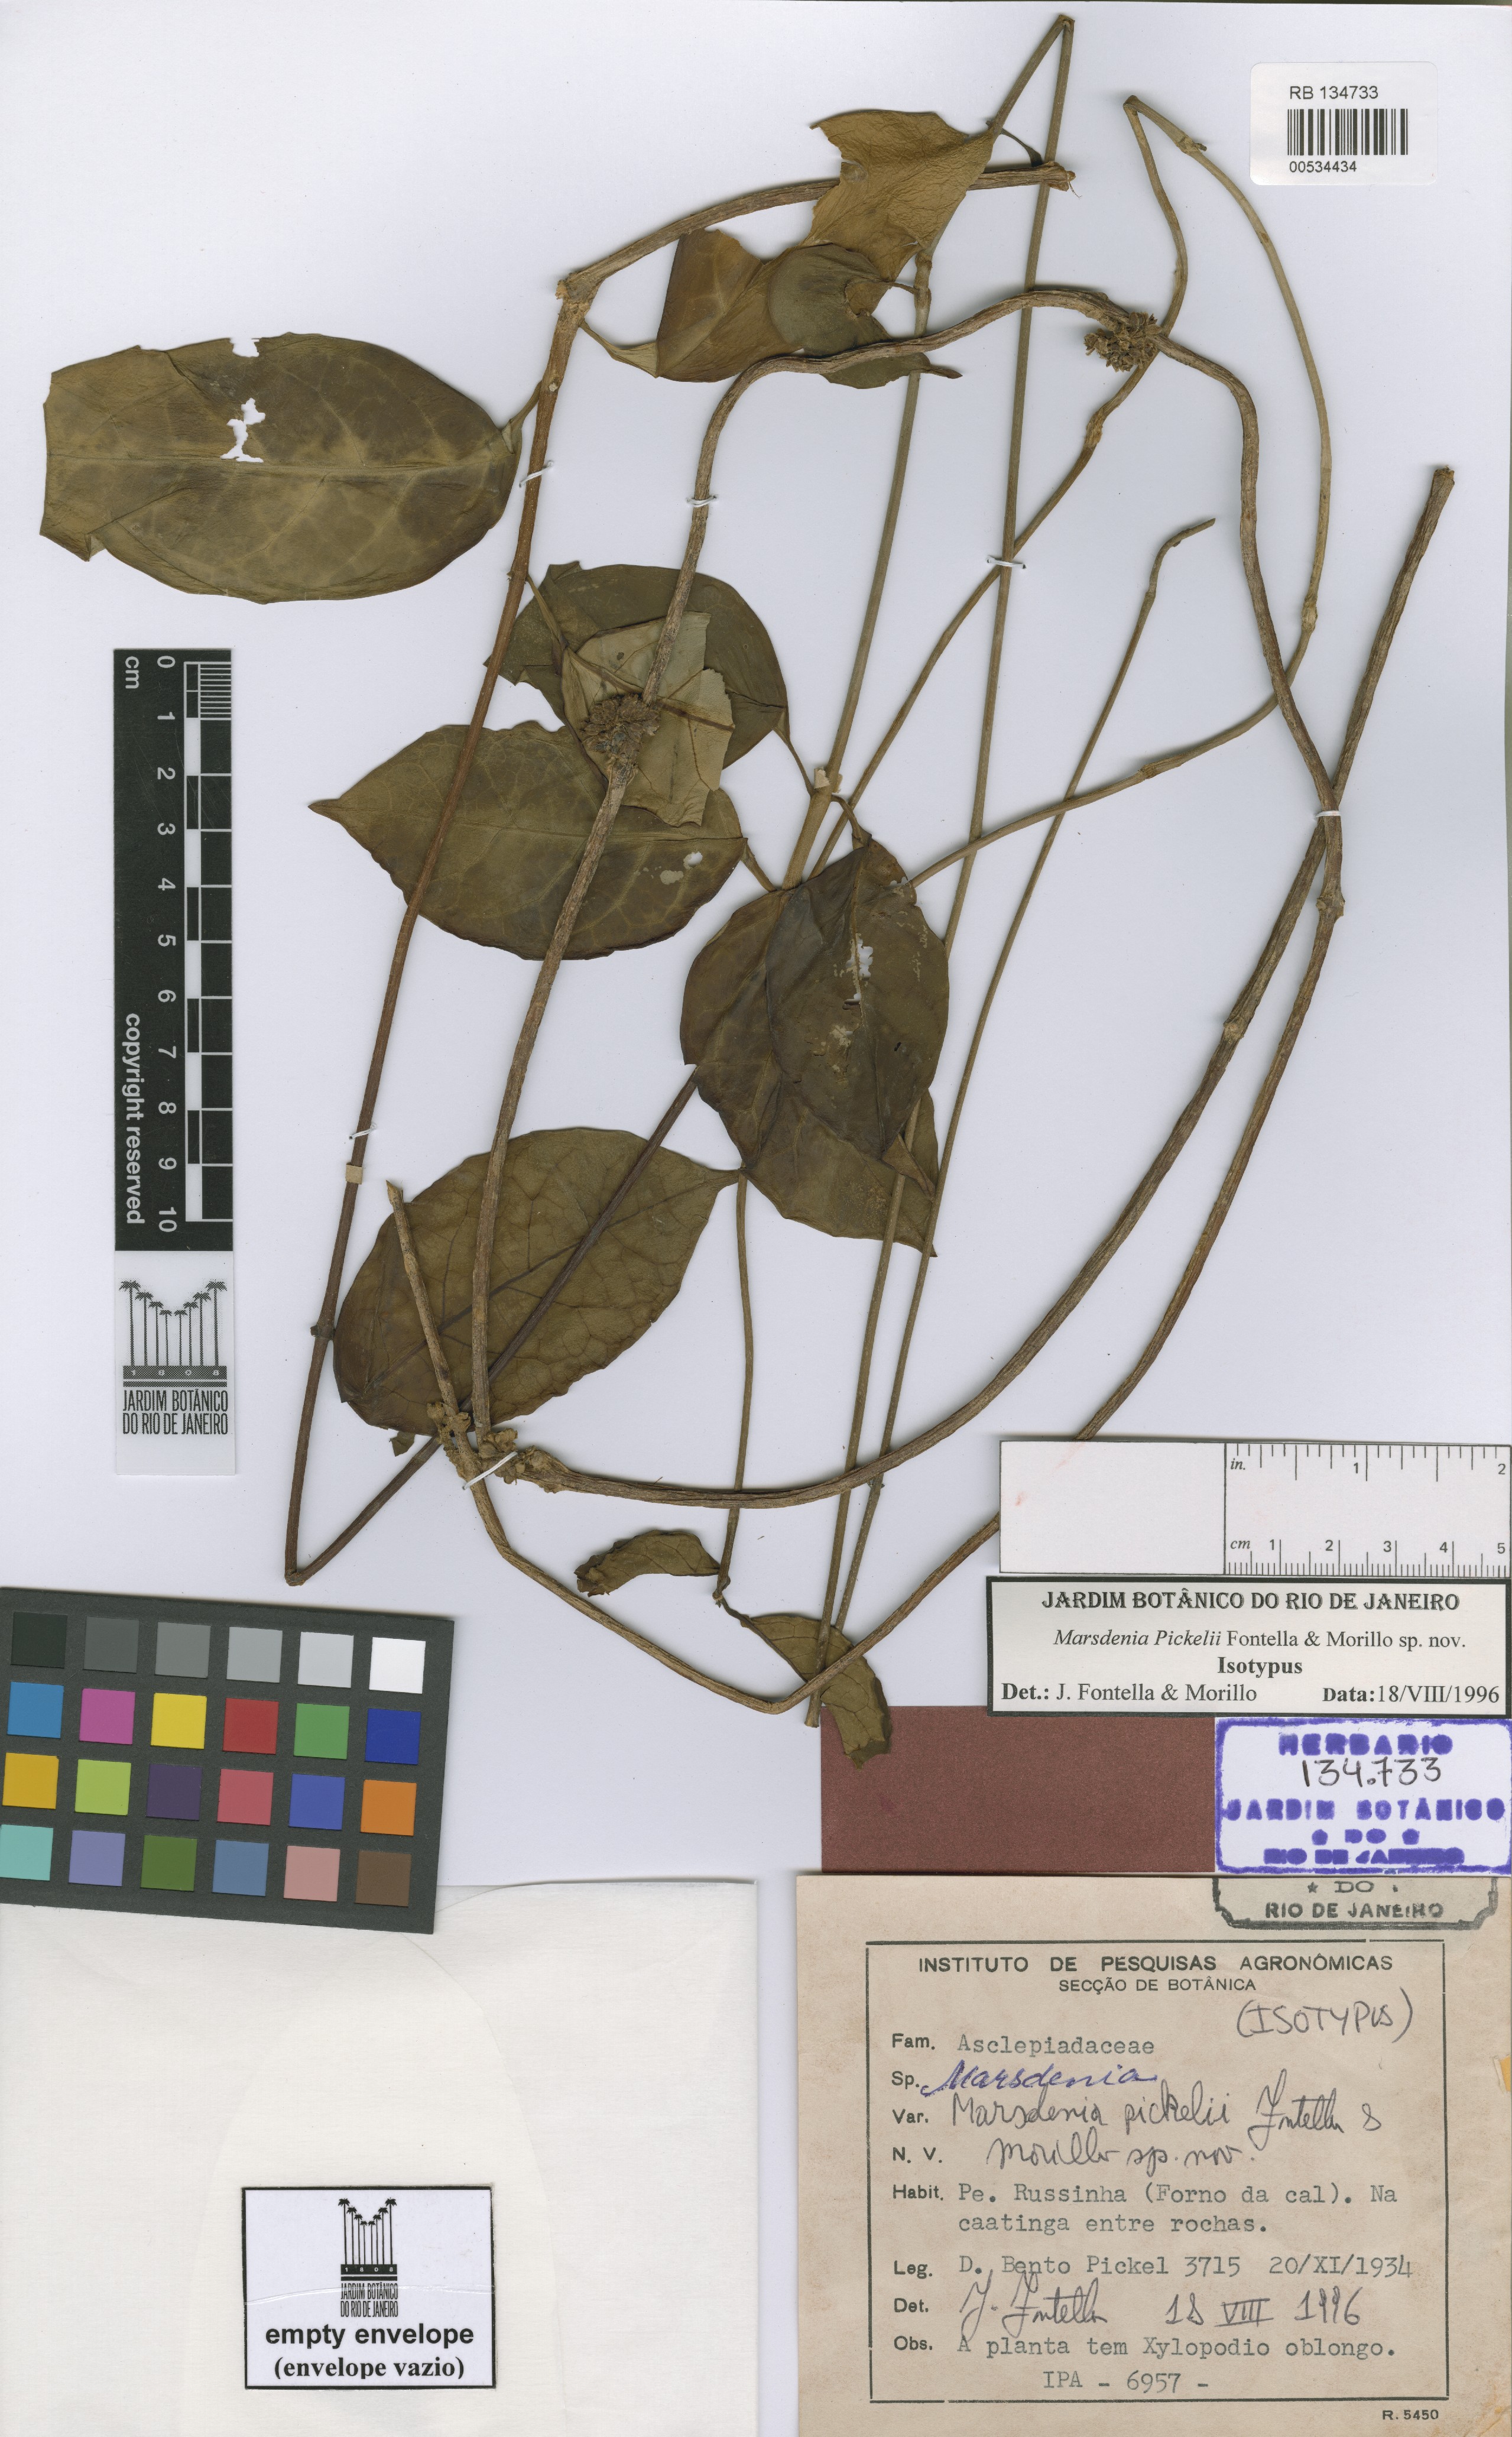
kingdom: Plantae
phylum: Tracheophyta
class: Magnoliopsida
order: Gentianales
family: Apocynaceae
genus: Ruehssia
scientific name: Ruehssia pickelii
